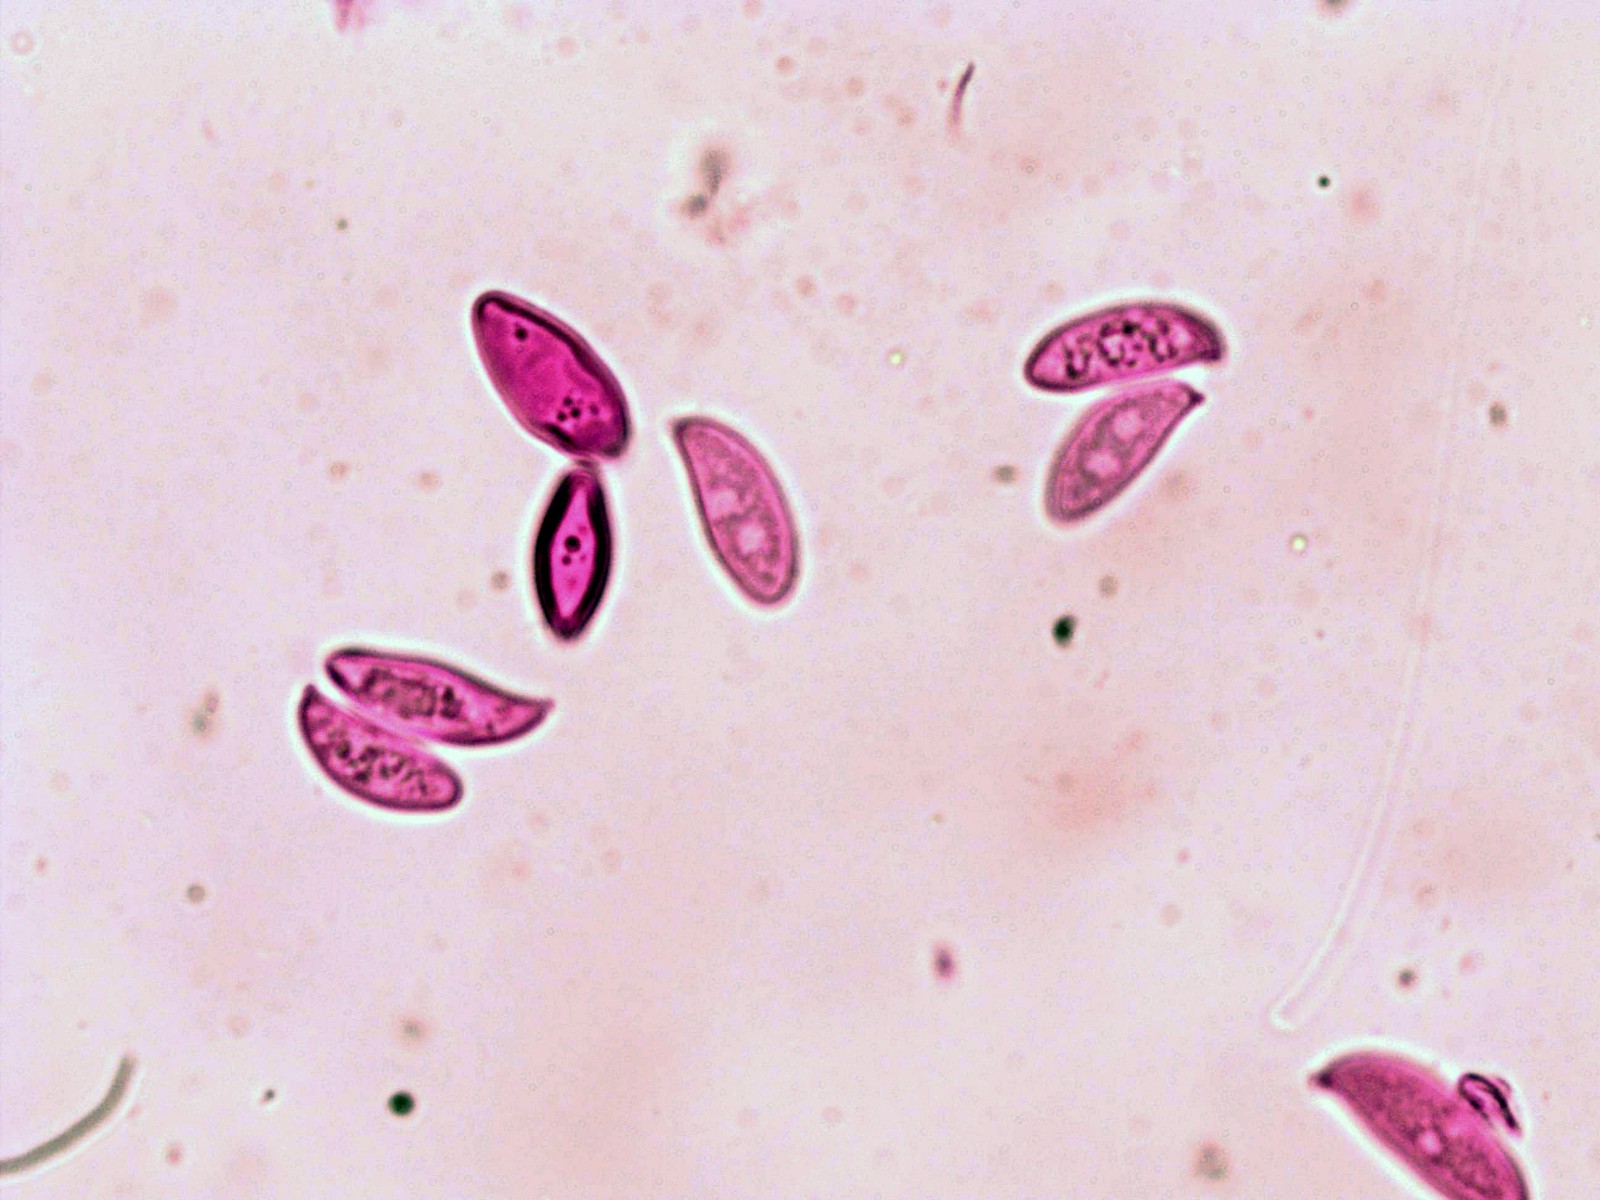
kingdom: Fungi
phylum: Basidiomycota
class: Agaricomycetes
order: Agaricales
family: Agaricaceae
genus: Lepiota
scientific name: Lepiota oreadiformis
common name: blegbrun parasolhat
